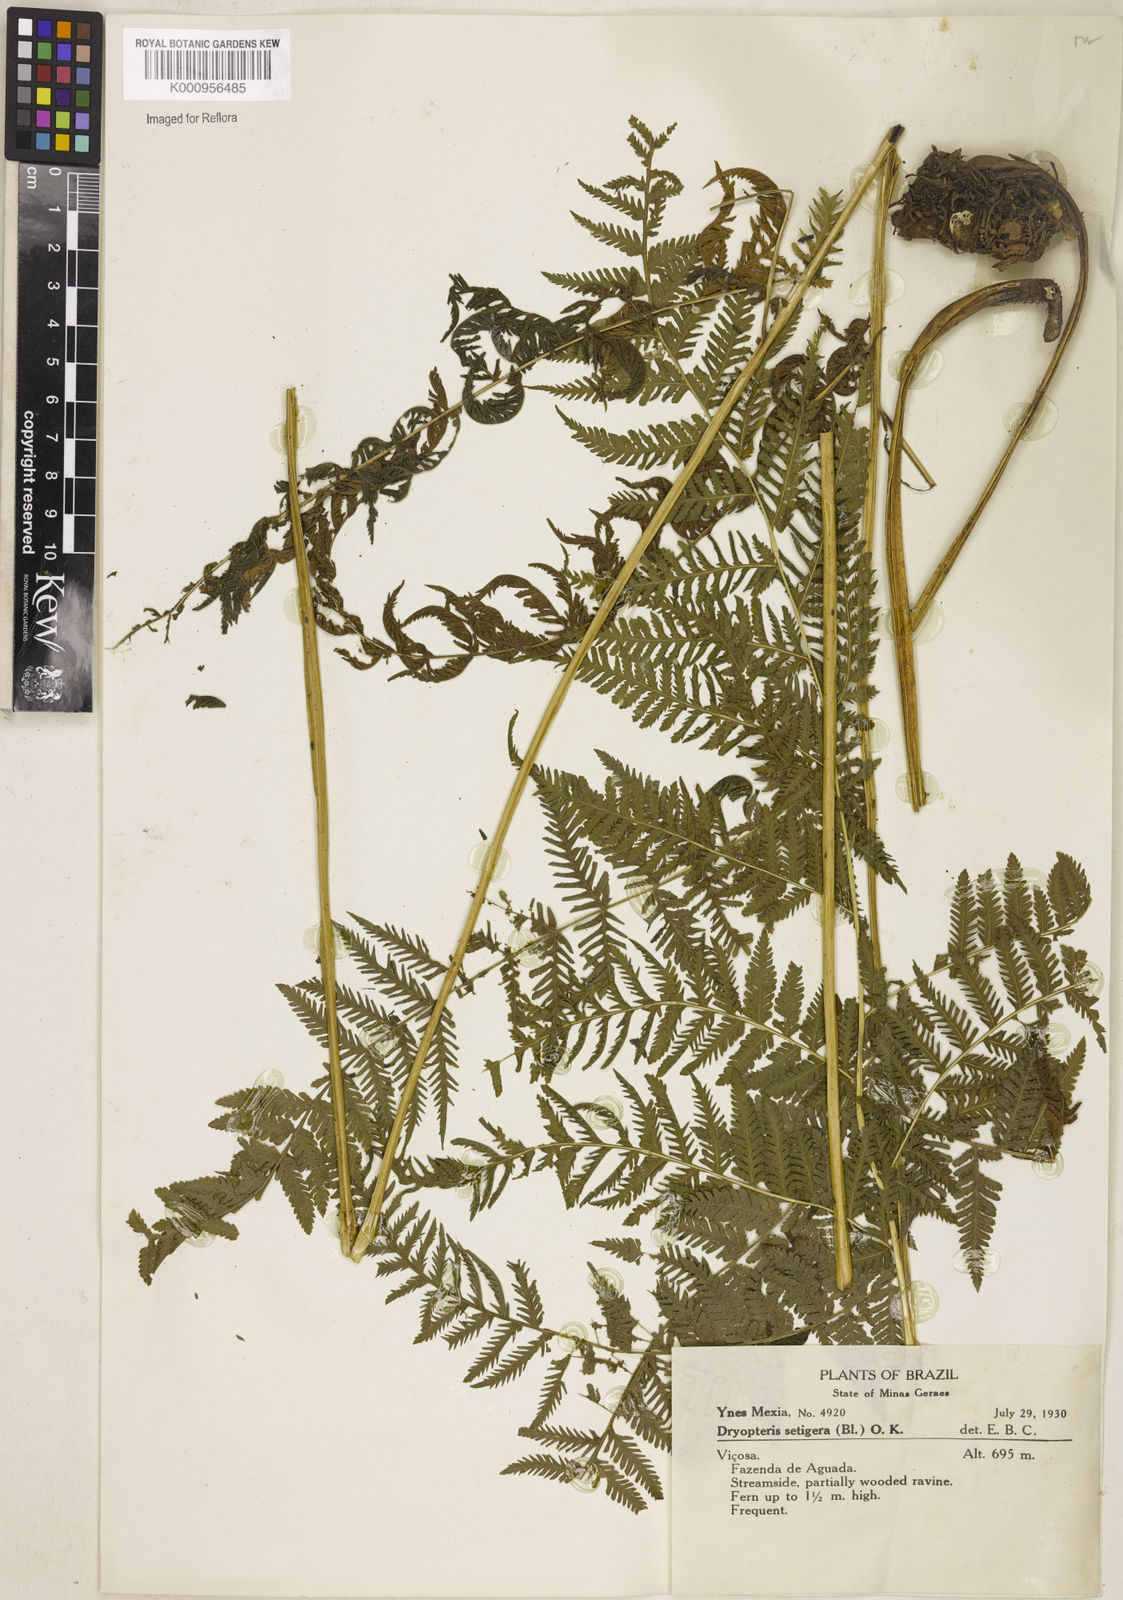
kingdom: Plantae
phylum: Tracheophyta
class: Polypodiopsida
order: Polypodiales
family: Thelypteridaceae
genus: Macrothelypteris
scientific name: Macrothelypteris torresiana
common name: Swordfern
